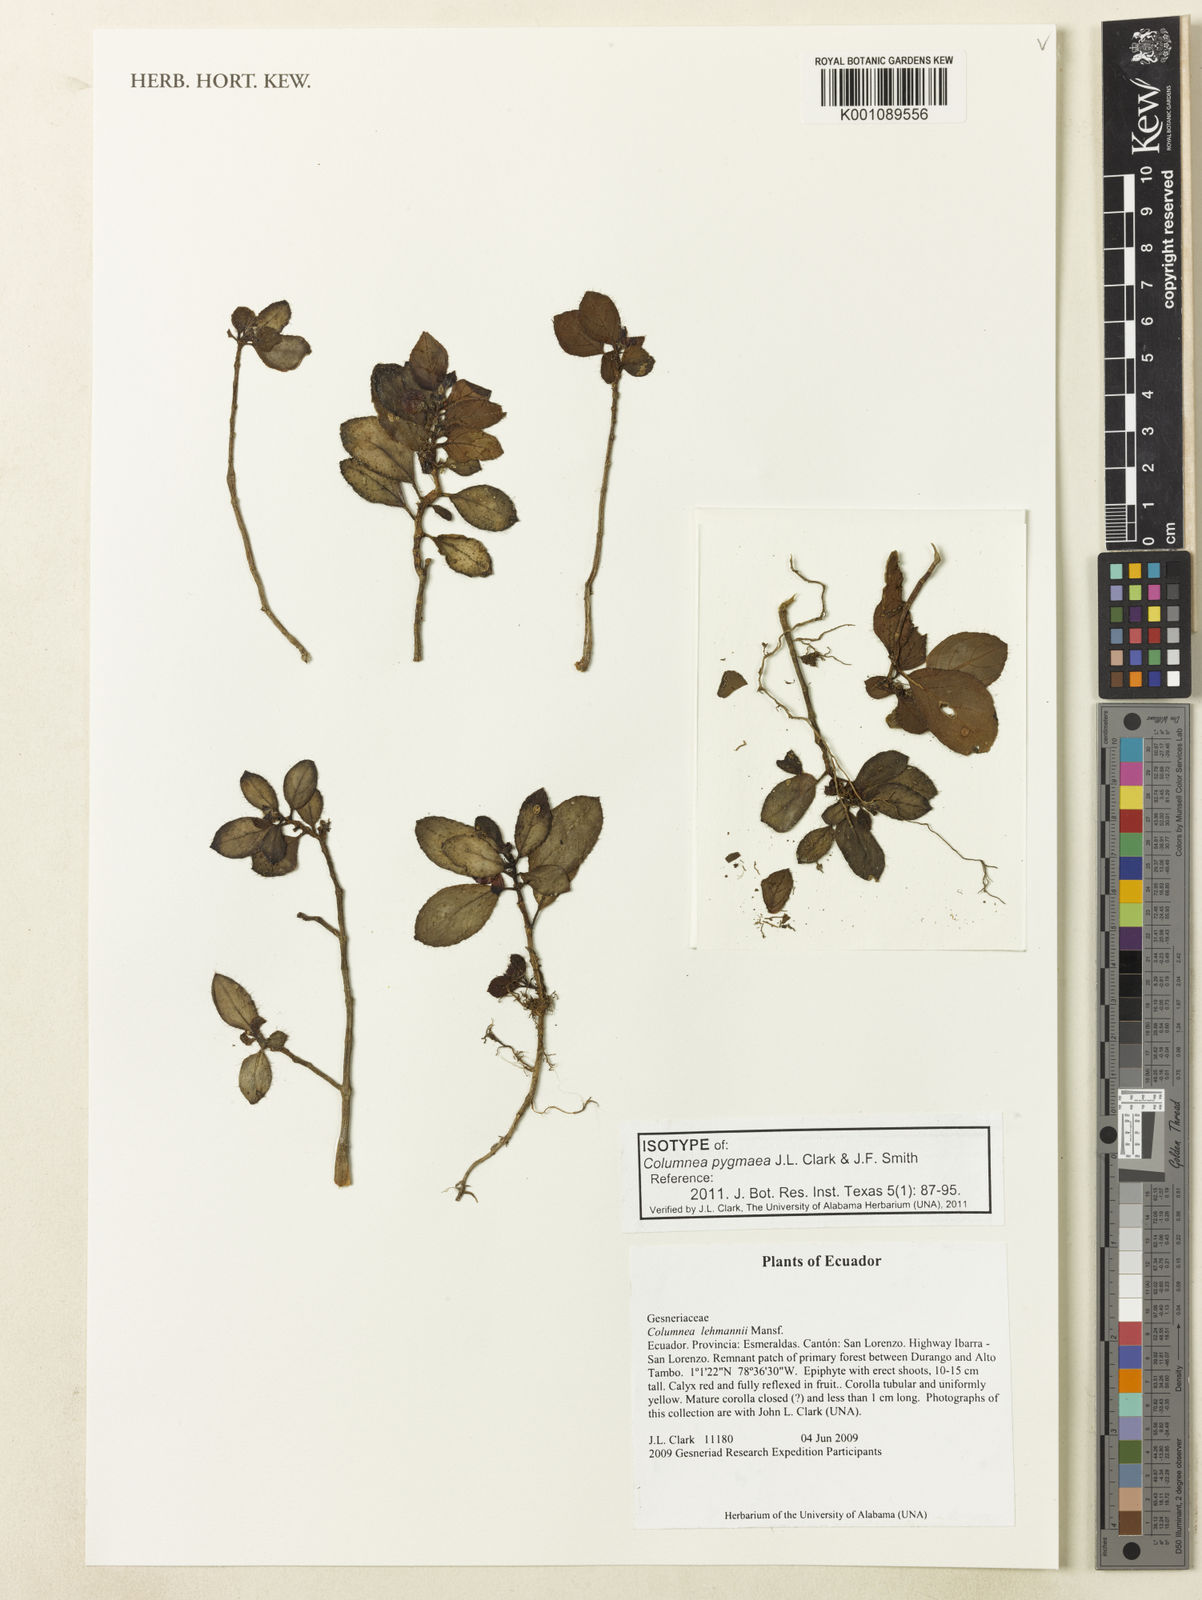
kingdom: Plantae
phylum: Tracheophyta
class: Magnoliopsida
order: Lamiales
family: Gesneriaceae
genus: Columnea
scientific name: Columnea pygmaea
